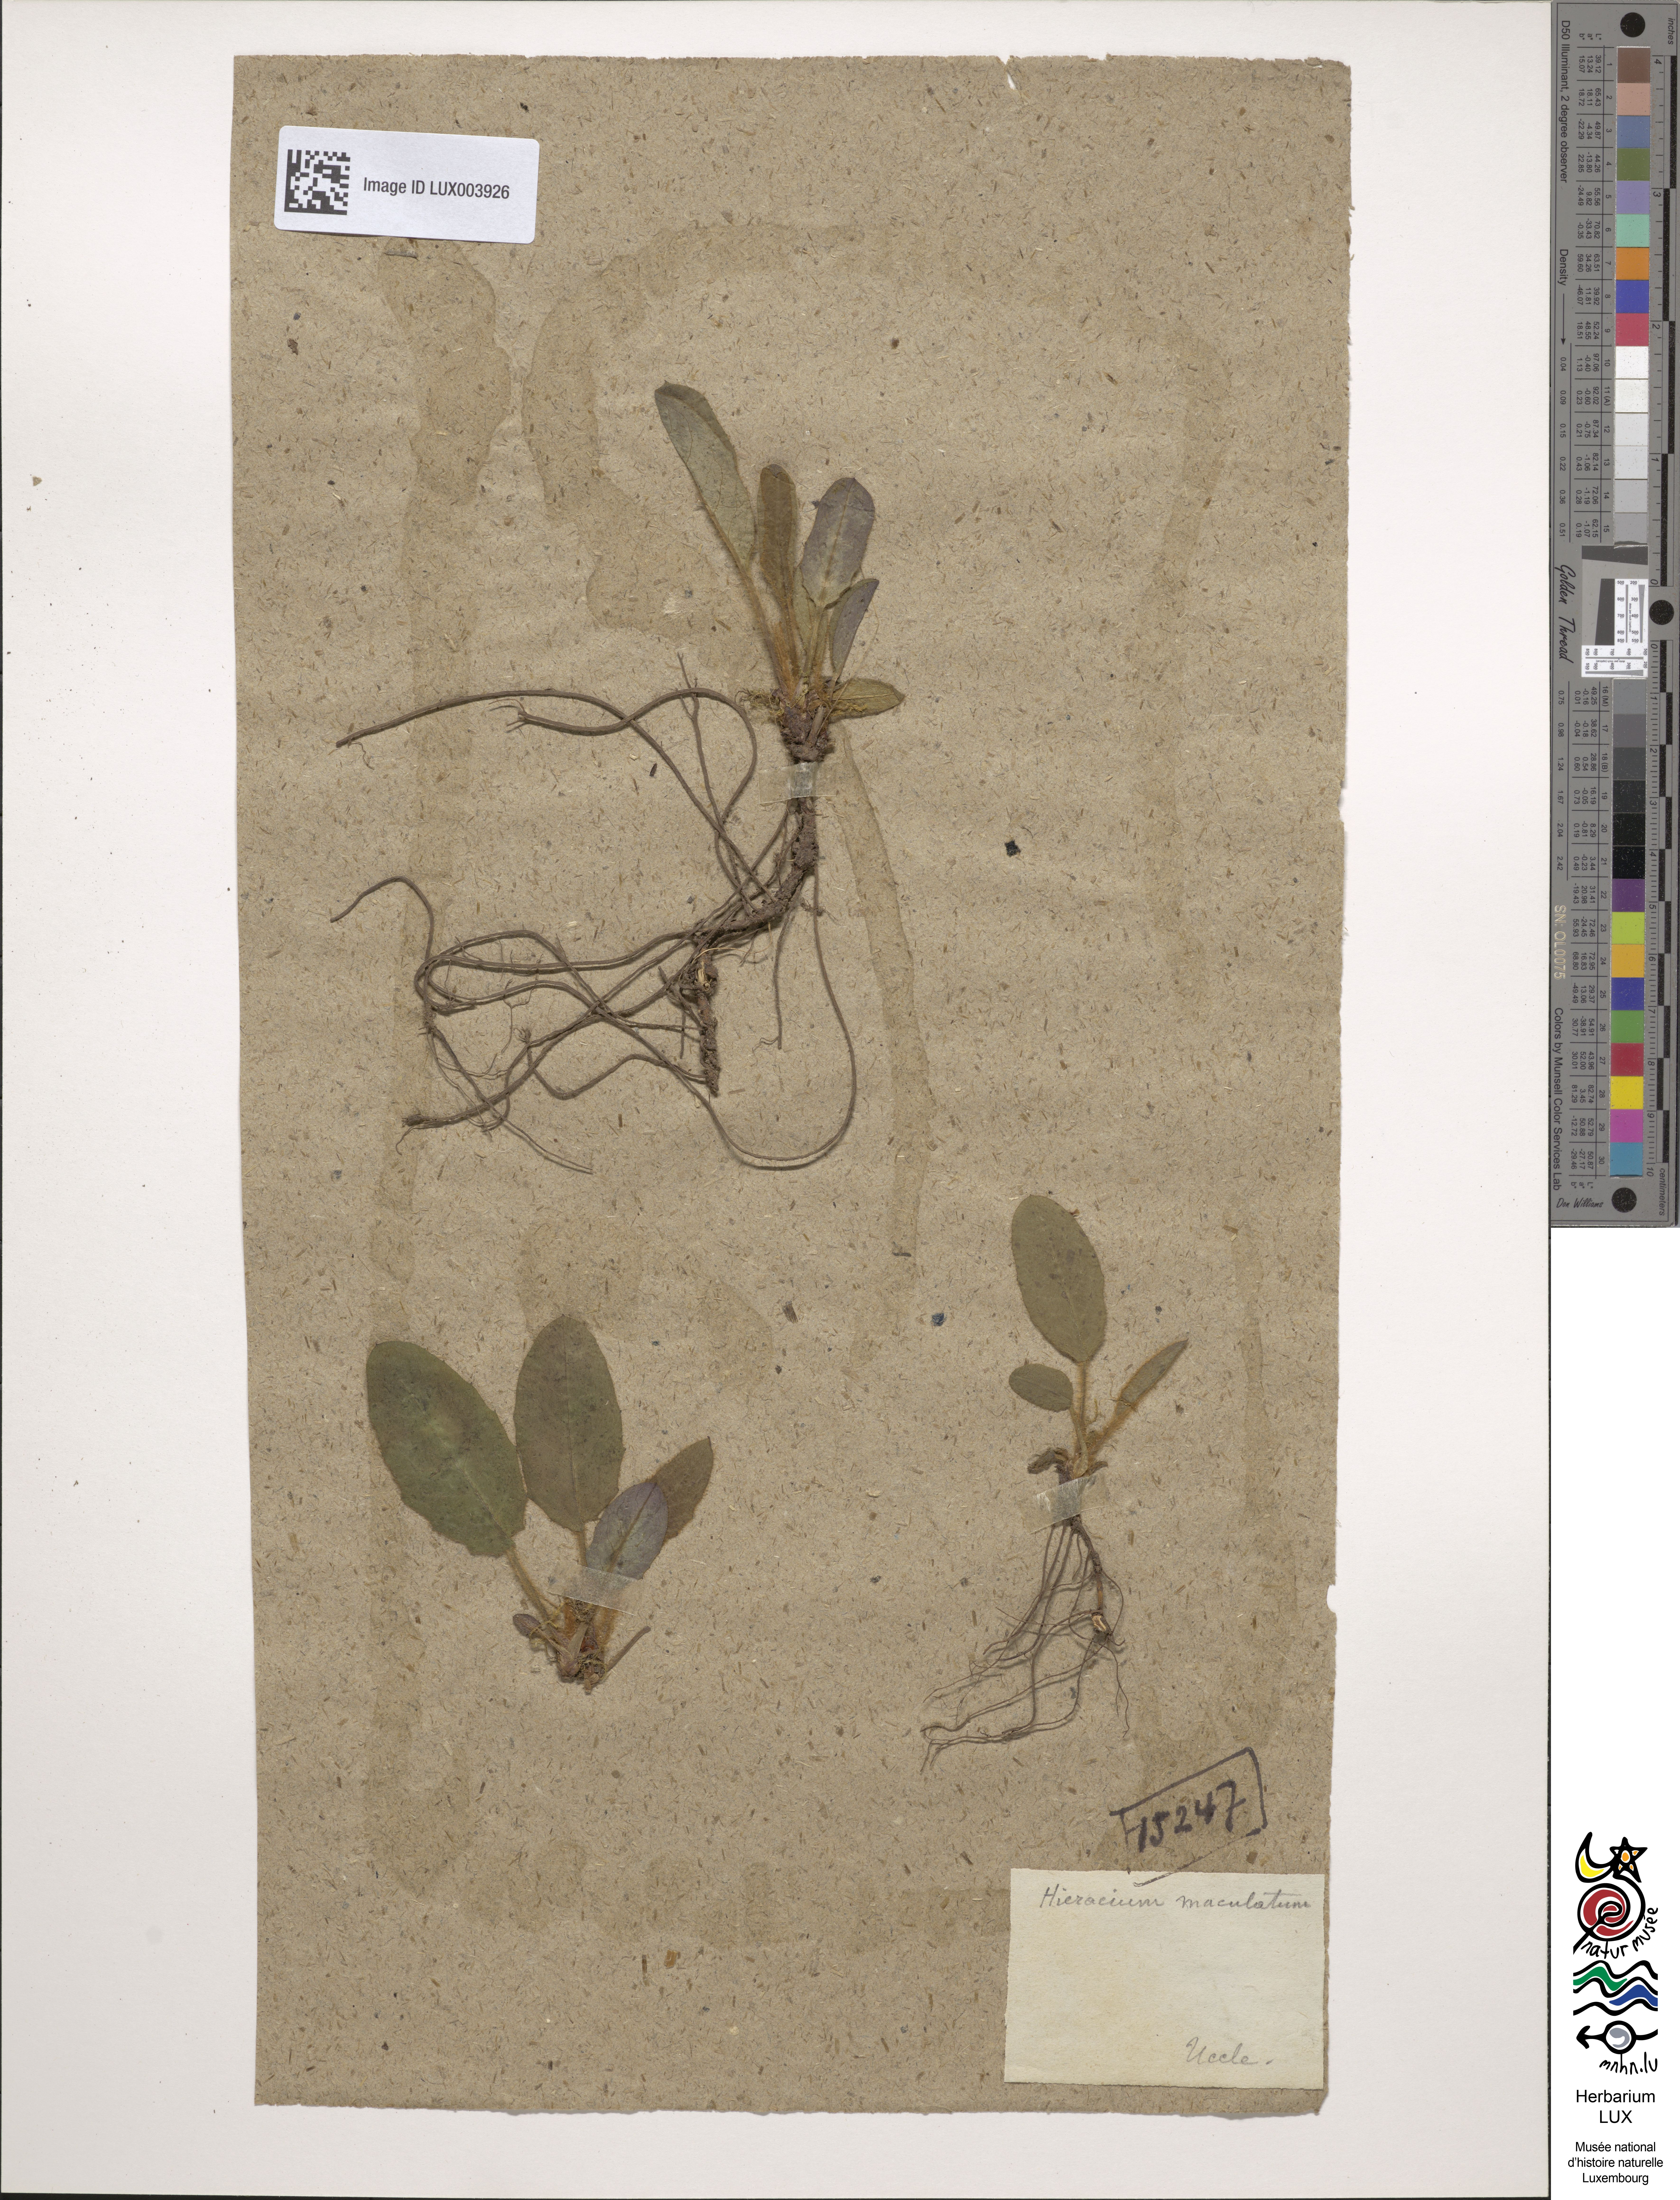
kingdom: Plantae
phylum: Tracheophyta
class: Magnoliopsida
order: Asterales
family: Asteraceae
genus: Hieracium
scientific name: Hieracium maculatum
